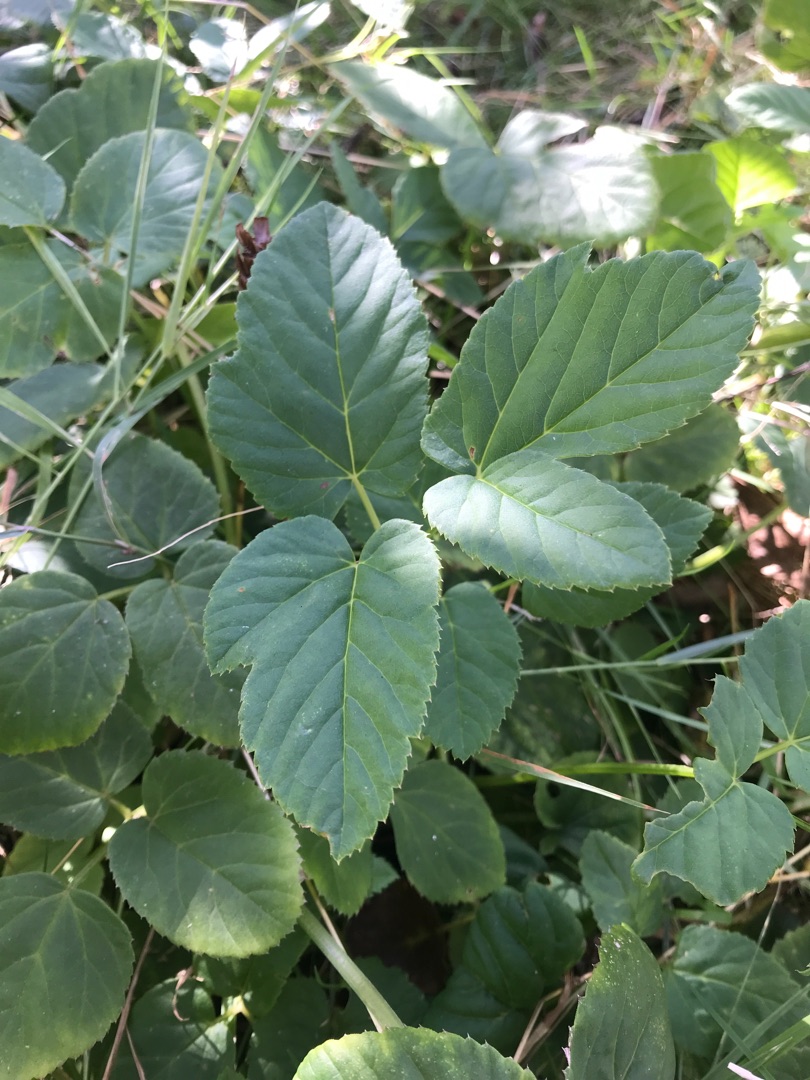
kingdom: Plantae
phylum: Tracheophyta
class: Magnoliopsida
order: Apiales
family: Apiaceae
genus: Aegopodium
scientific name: Aegopodium podagraria
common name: Skvalderkål
